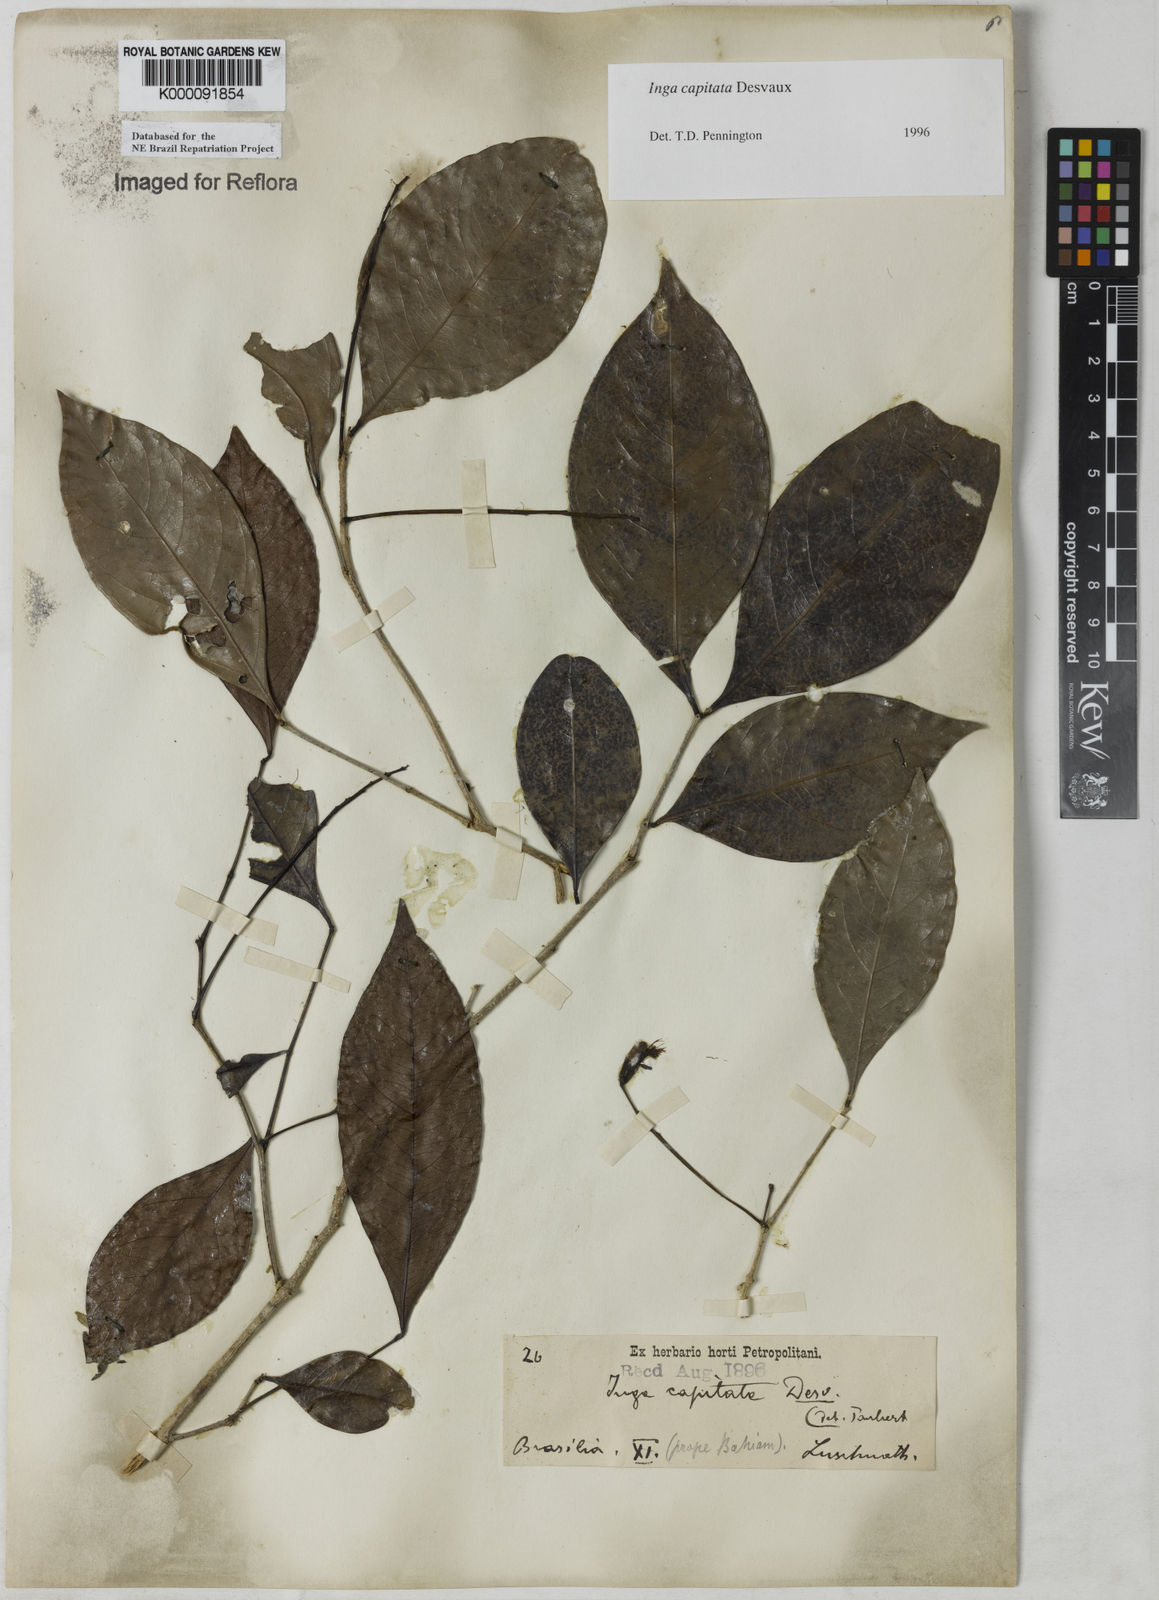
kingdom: Plantae
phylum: Tracheophyta
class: Magnoliopsida
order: Fabales
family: Fabaceae
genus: Inga
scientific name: Inga capitata
